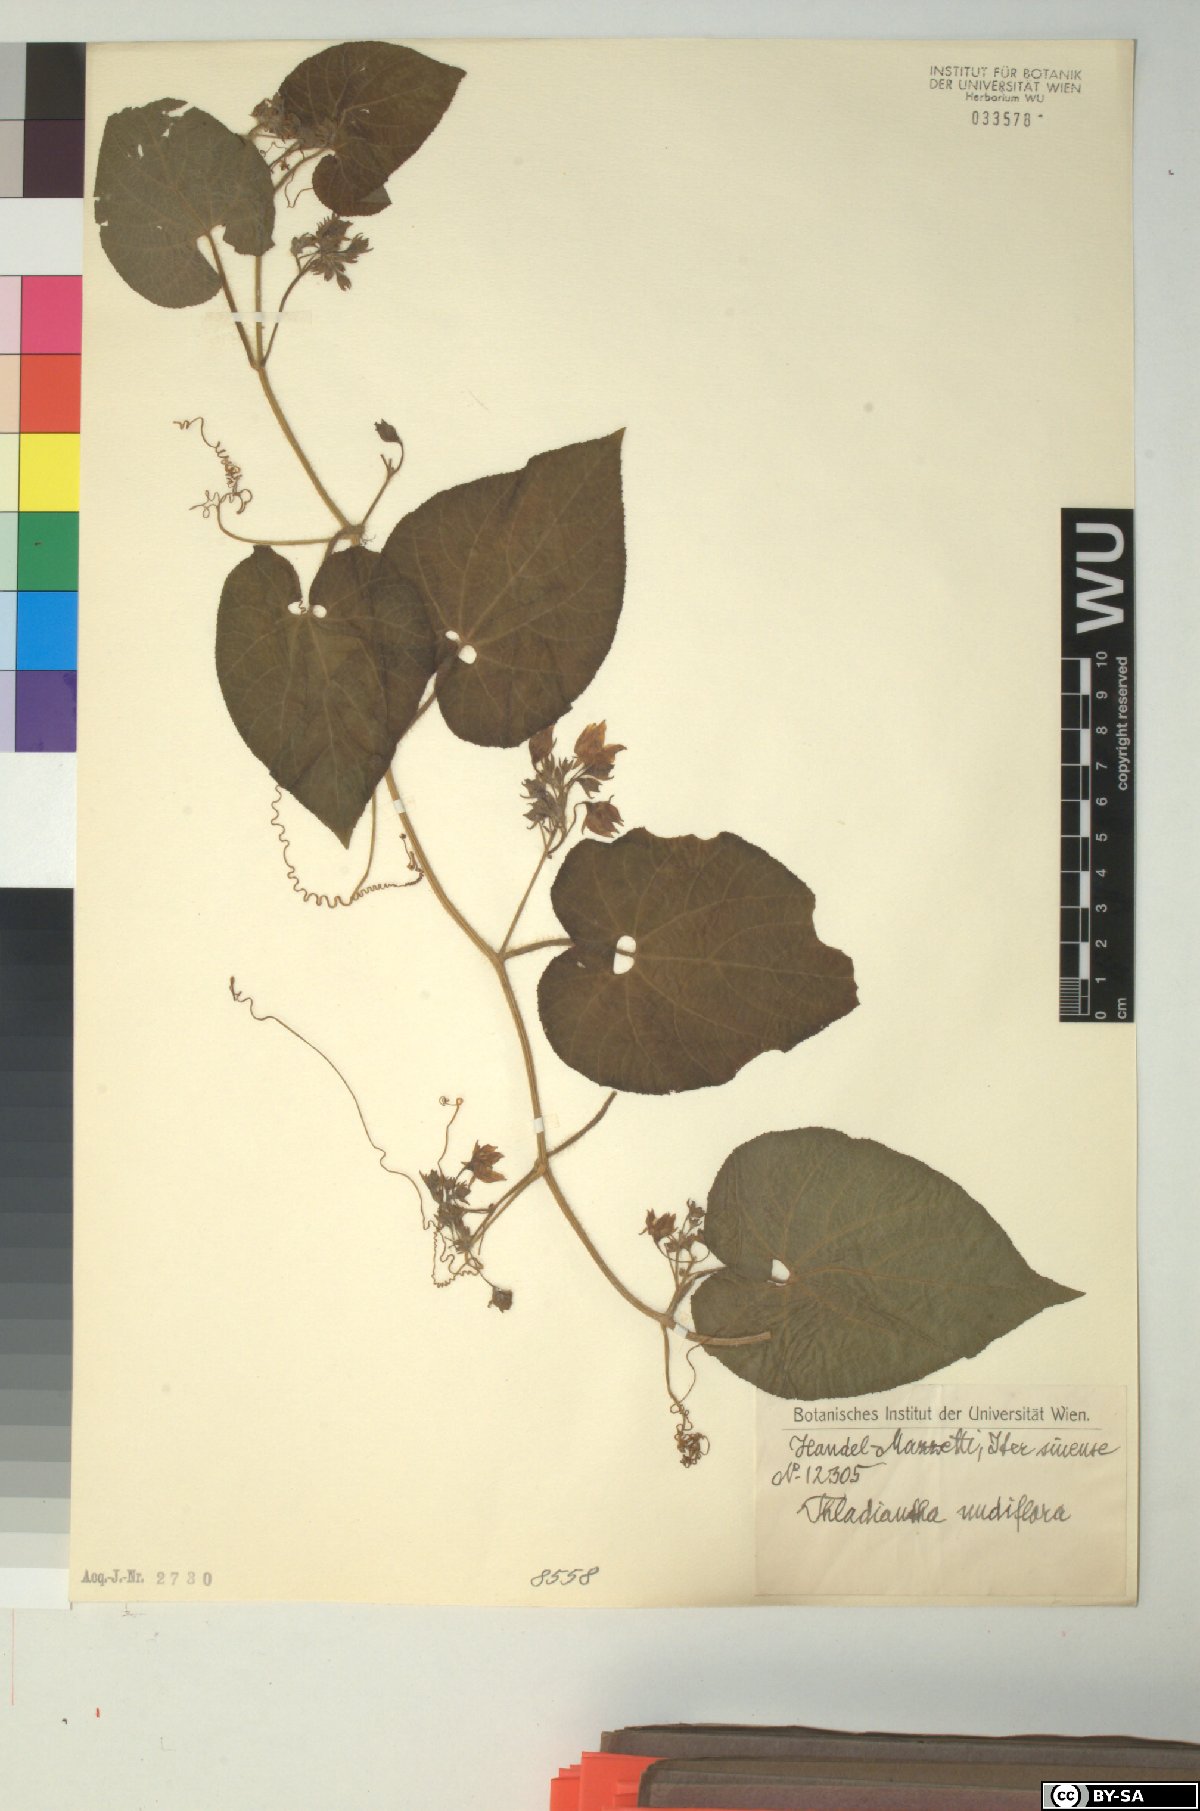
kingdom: Plantae
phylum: Tracheophyta
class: Magnoliopsida
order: Cucurbitales
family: Cucurbitaceae
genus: Thladiantha
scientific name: Thladiantha nudiflora
